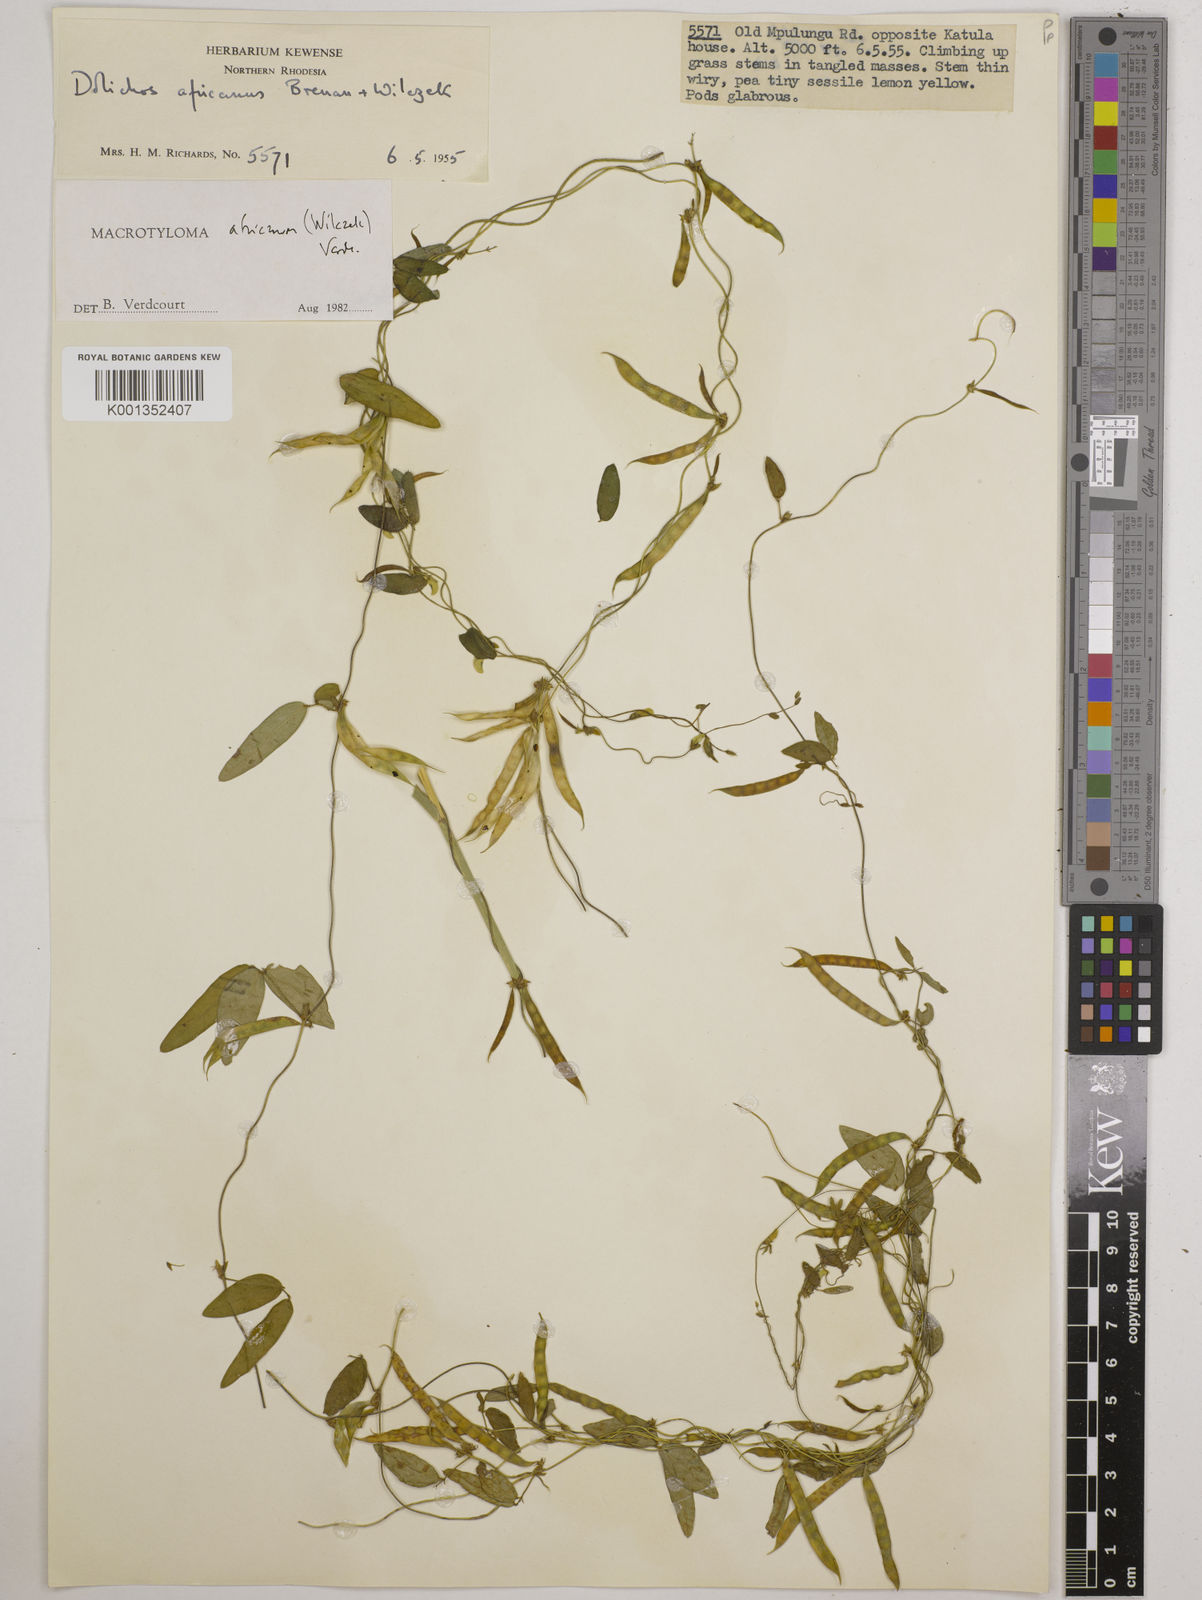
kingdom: Plantae
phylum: Tracheophyta
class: Magnoliopsida
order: Fabales
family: Fabaceae
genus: Macrotyloma
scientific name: Macrotyloma africanum
